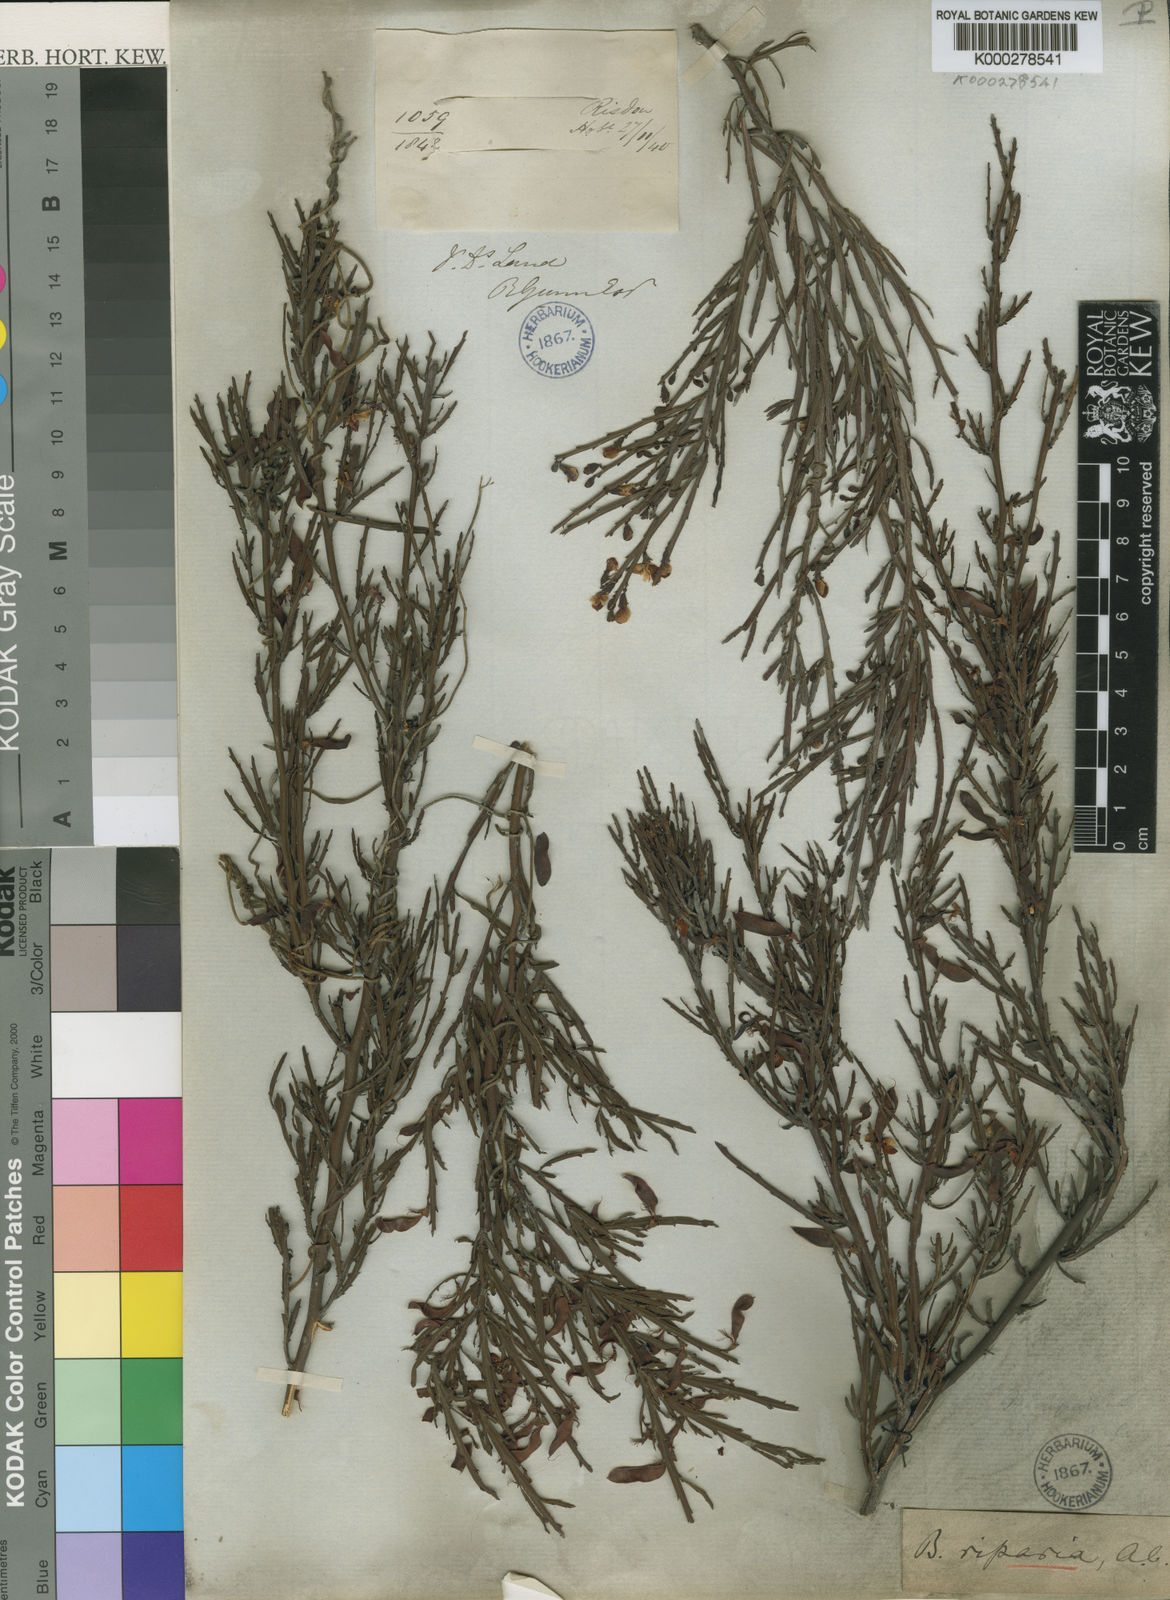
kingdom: Plantae
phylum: Tracheophyta
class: Magnoliopsida
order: Fabales
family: Fabaceae
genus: Bossiaea
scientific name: Bossiaea riparia
